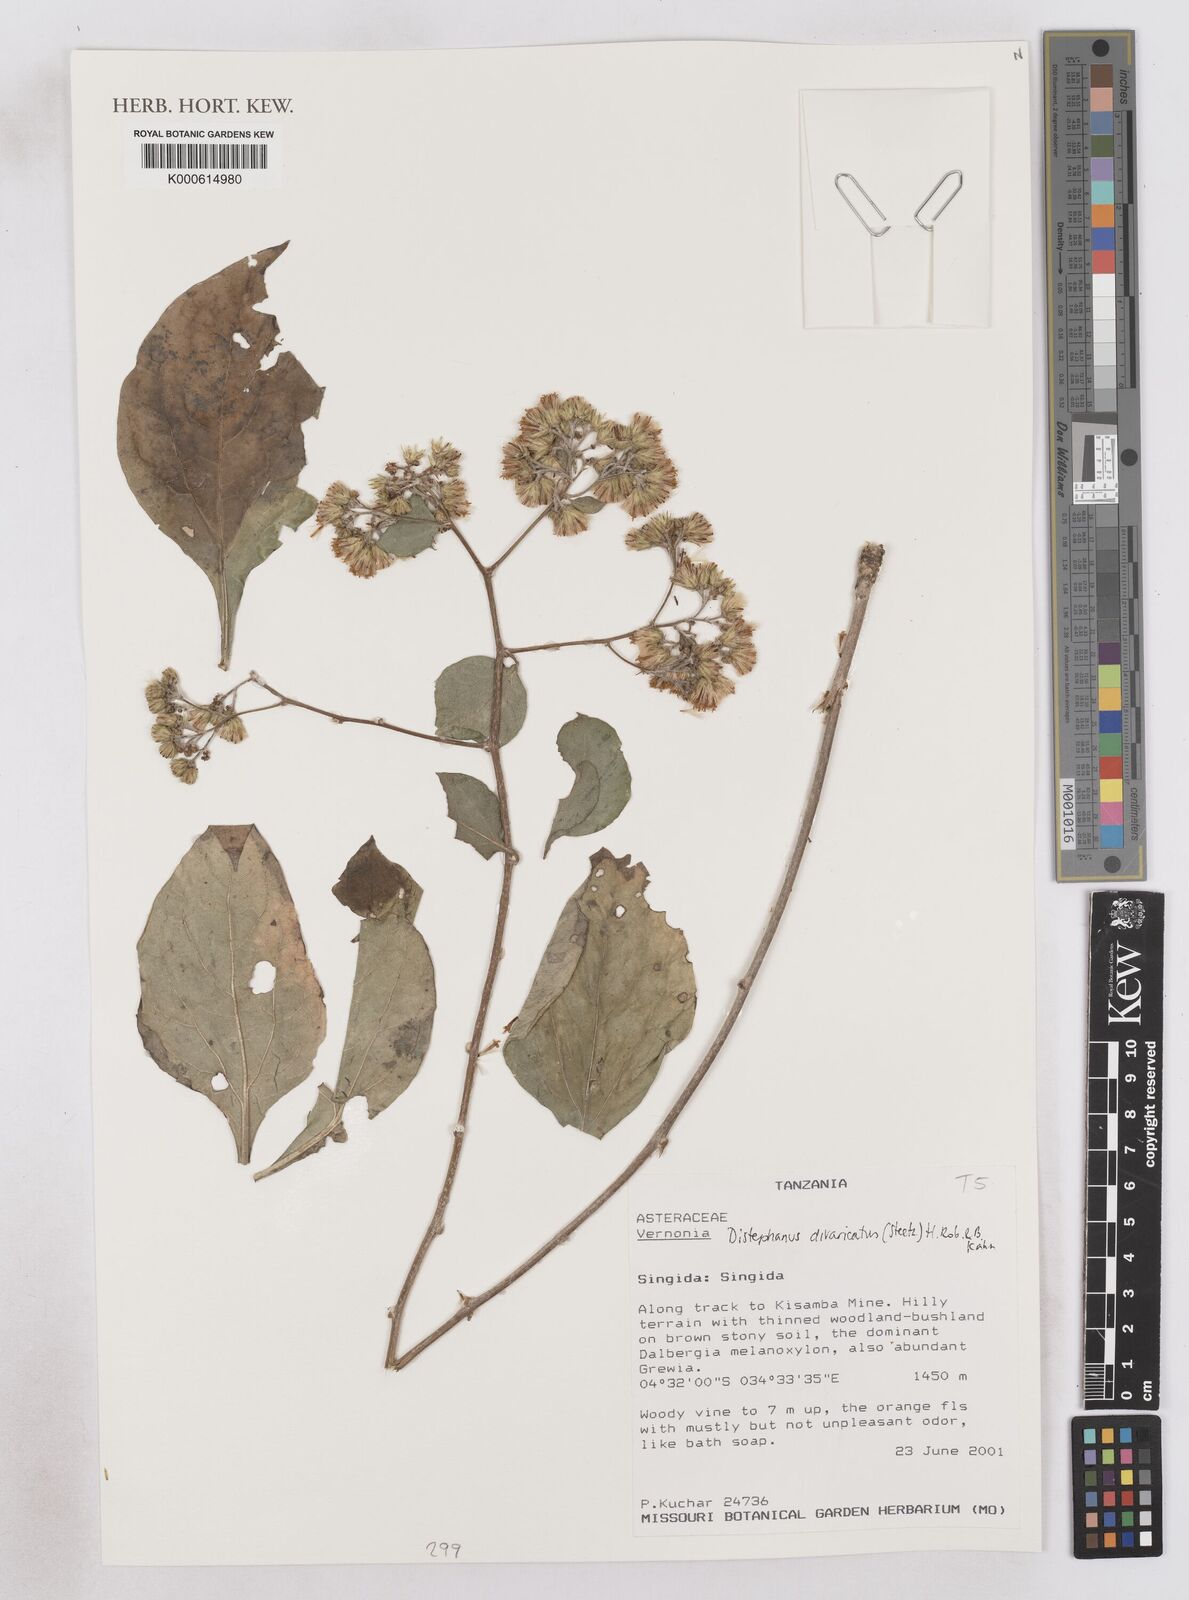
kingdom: Plantae
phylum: Tracheophyta
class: Magnoliopsida
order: Asterales
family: Asteraceae
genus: Distephanus
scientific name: Distephanus divaricatus
